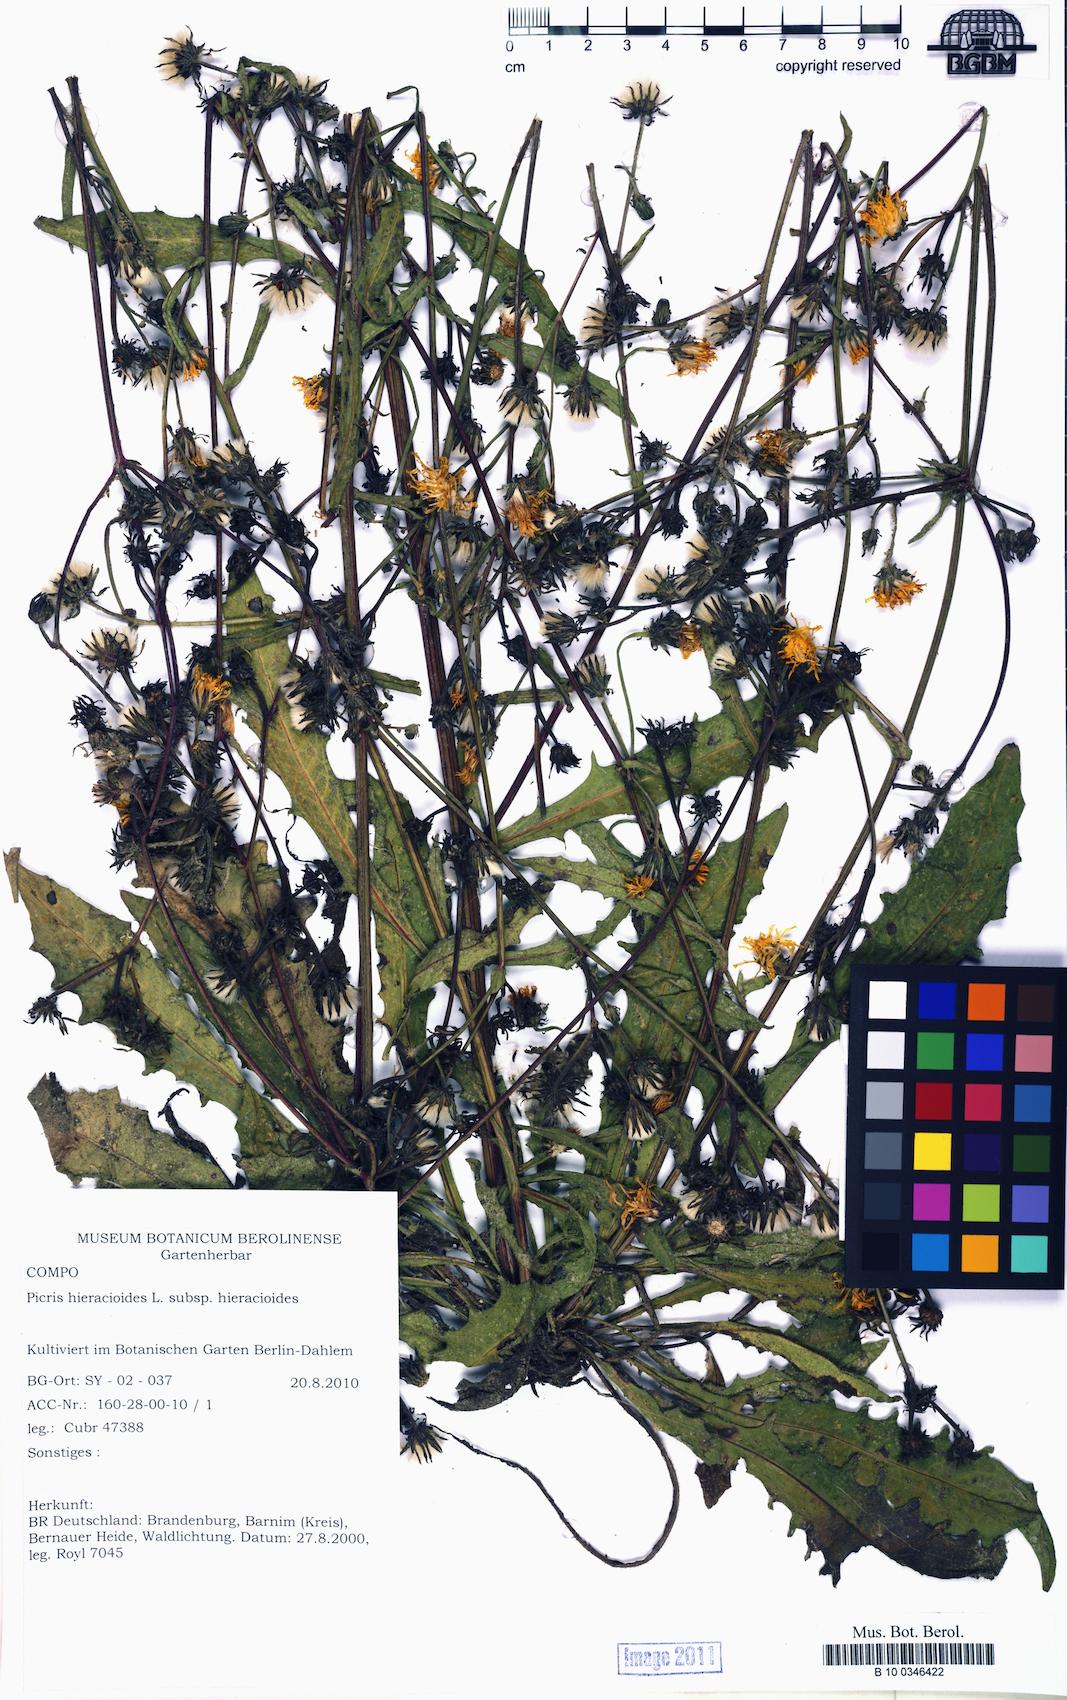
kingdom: Plantae
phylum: Tracheophyta
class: Magnoliopsida
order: Asterales
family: Asteraceae
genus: Picris
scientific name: Picris hieracioides
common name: Hawkweed oxtongue
